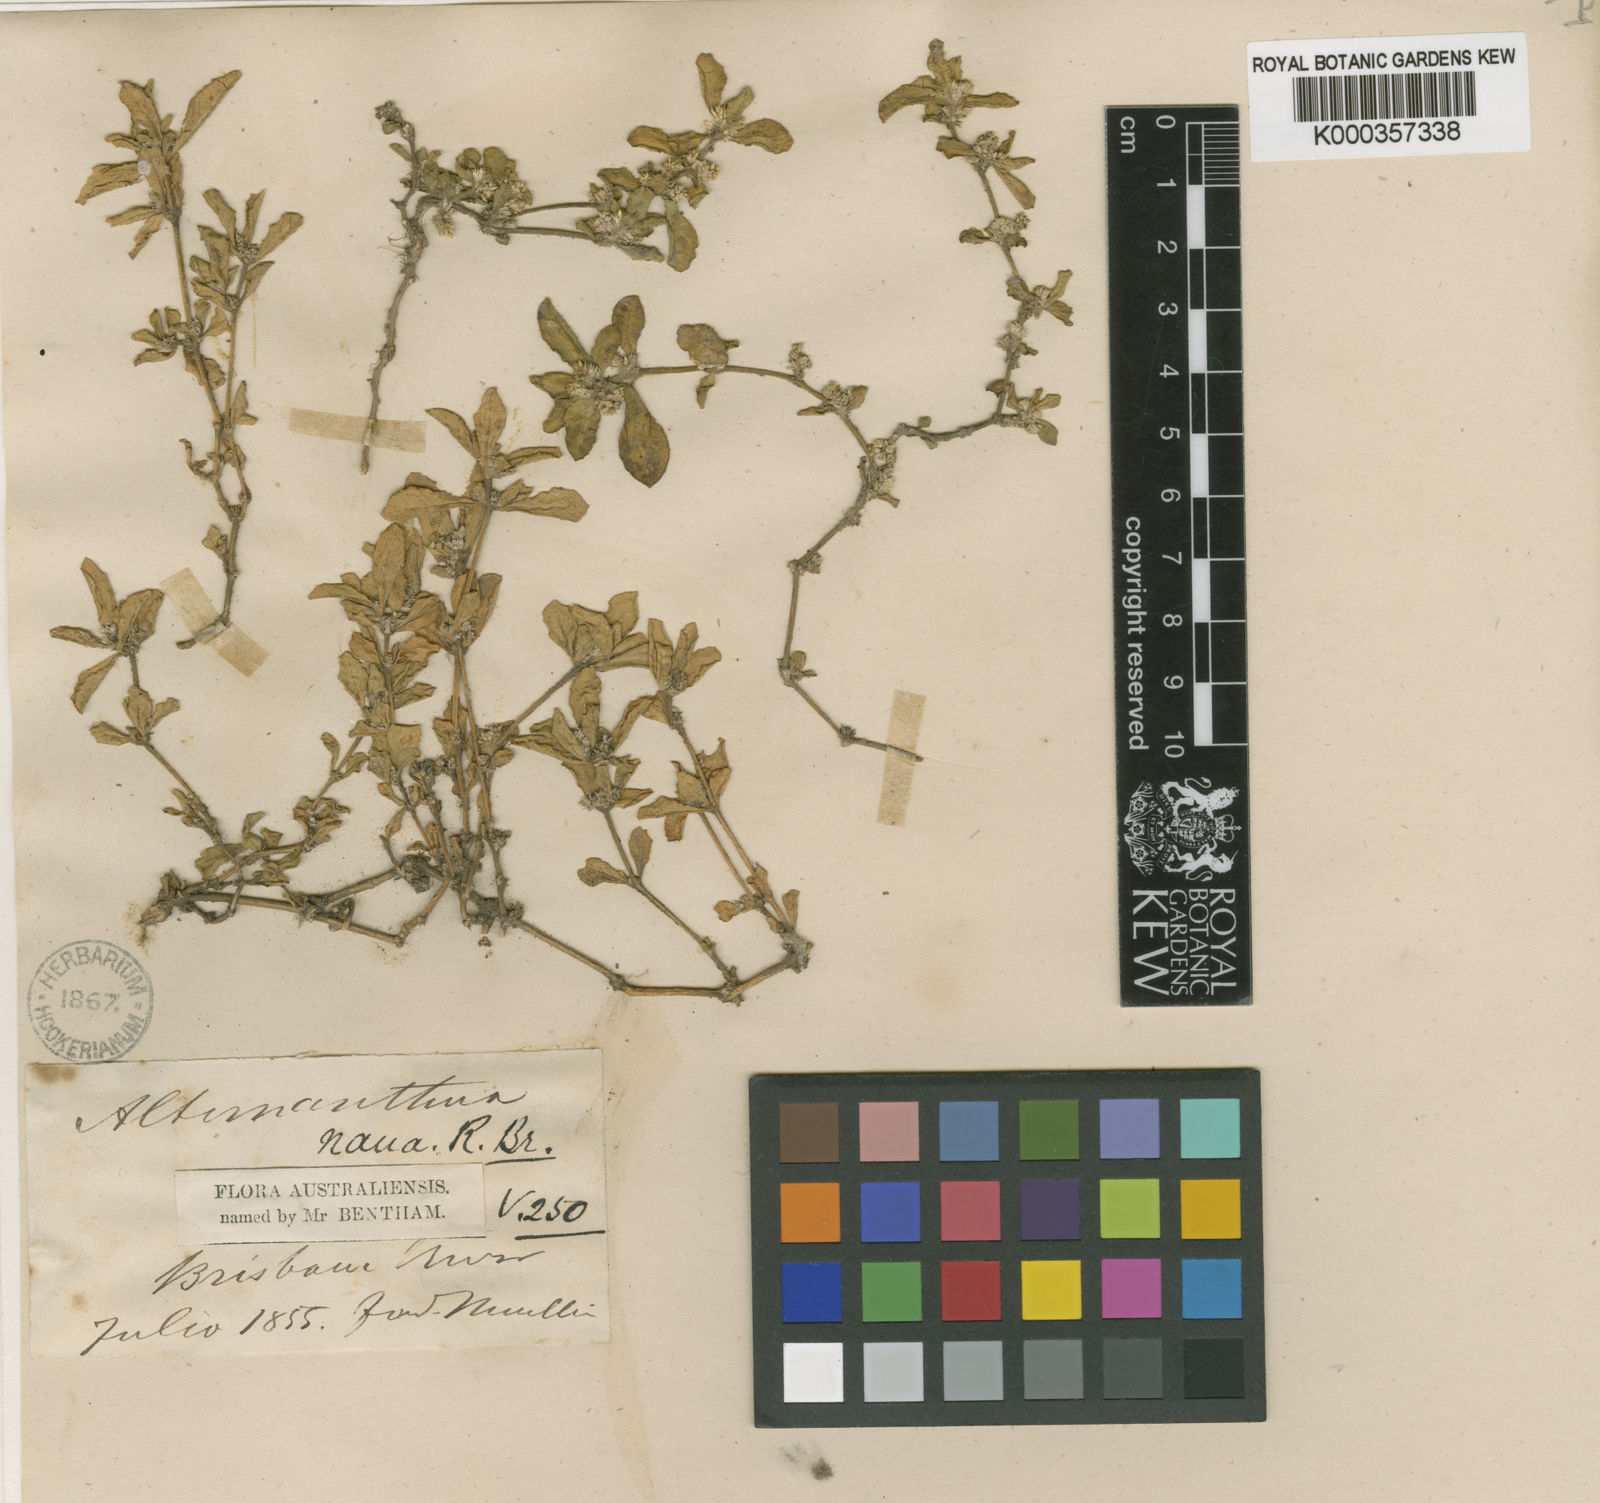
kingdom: Plantae
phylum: Tracheophyta
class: Magnoliopsida
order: Caryophyllales
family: Amaranthaceae
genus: Alternanthera
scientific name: Alternanthera nana
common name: Hairy joyweed
